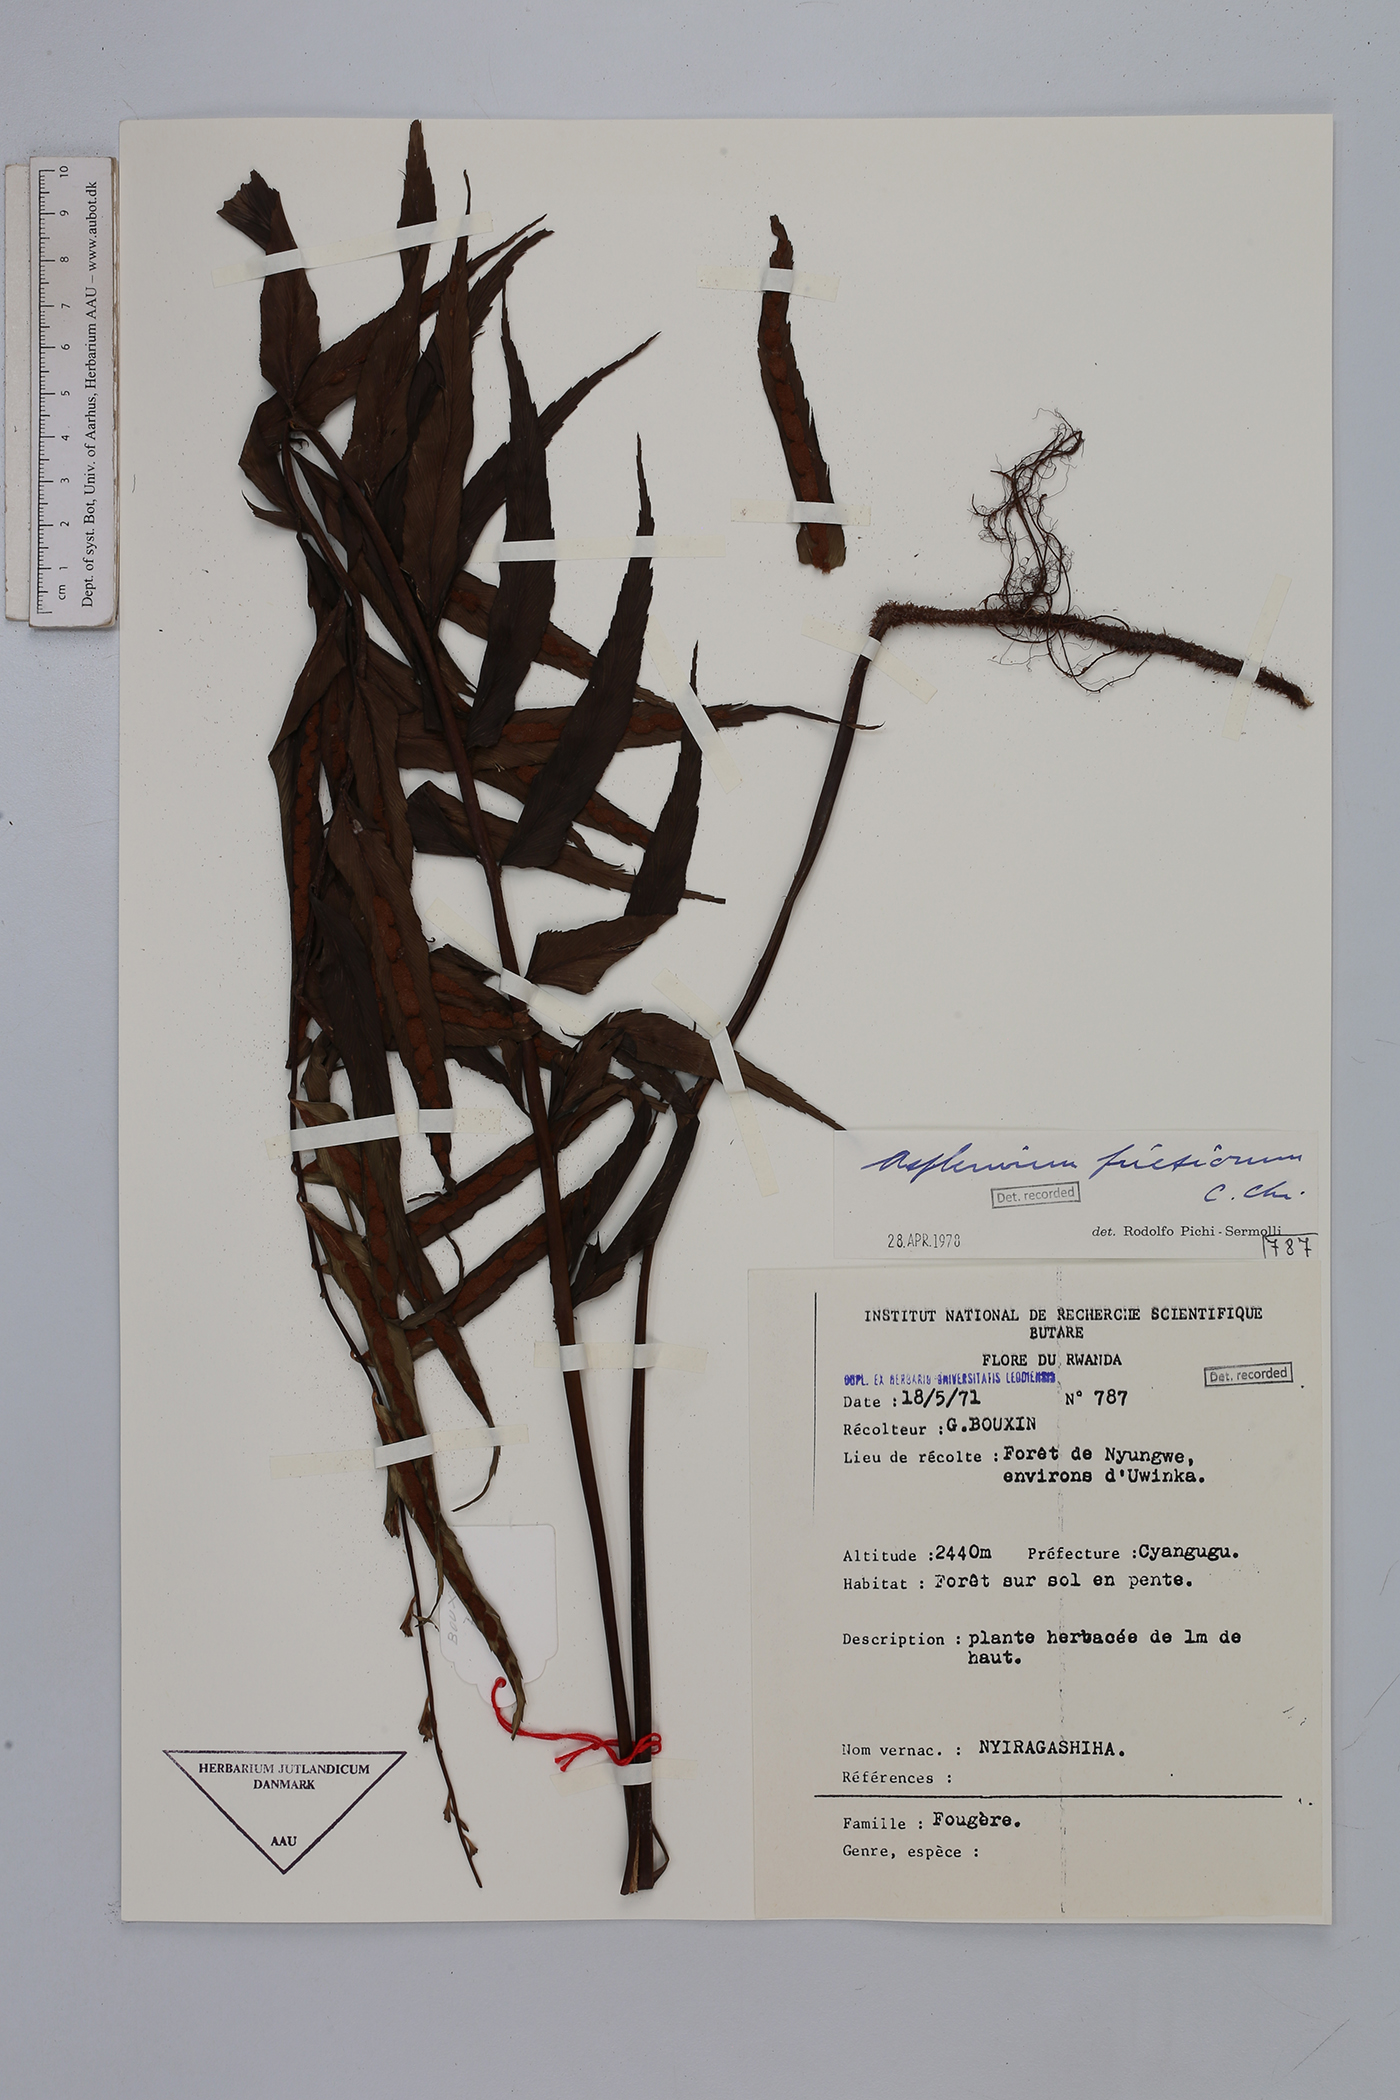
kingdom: Plantae
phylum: Tracheophyta
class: Polypodiopsida
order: Polypodiales
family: Aspleniaceae
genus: Asplenium
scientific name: Asplenium gueinzianum
